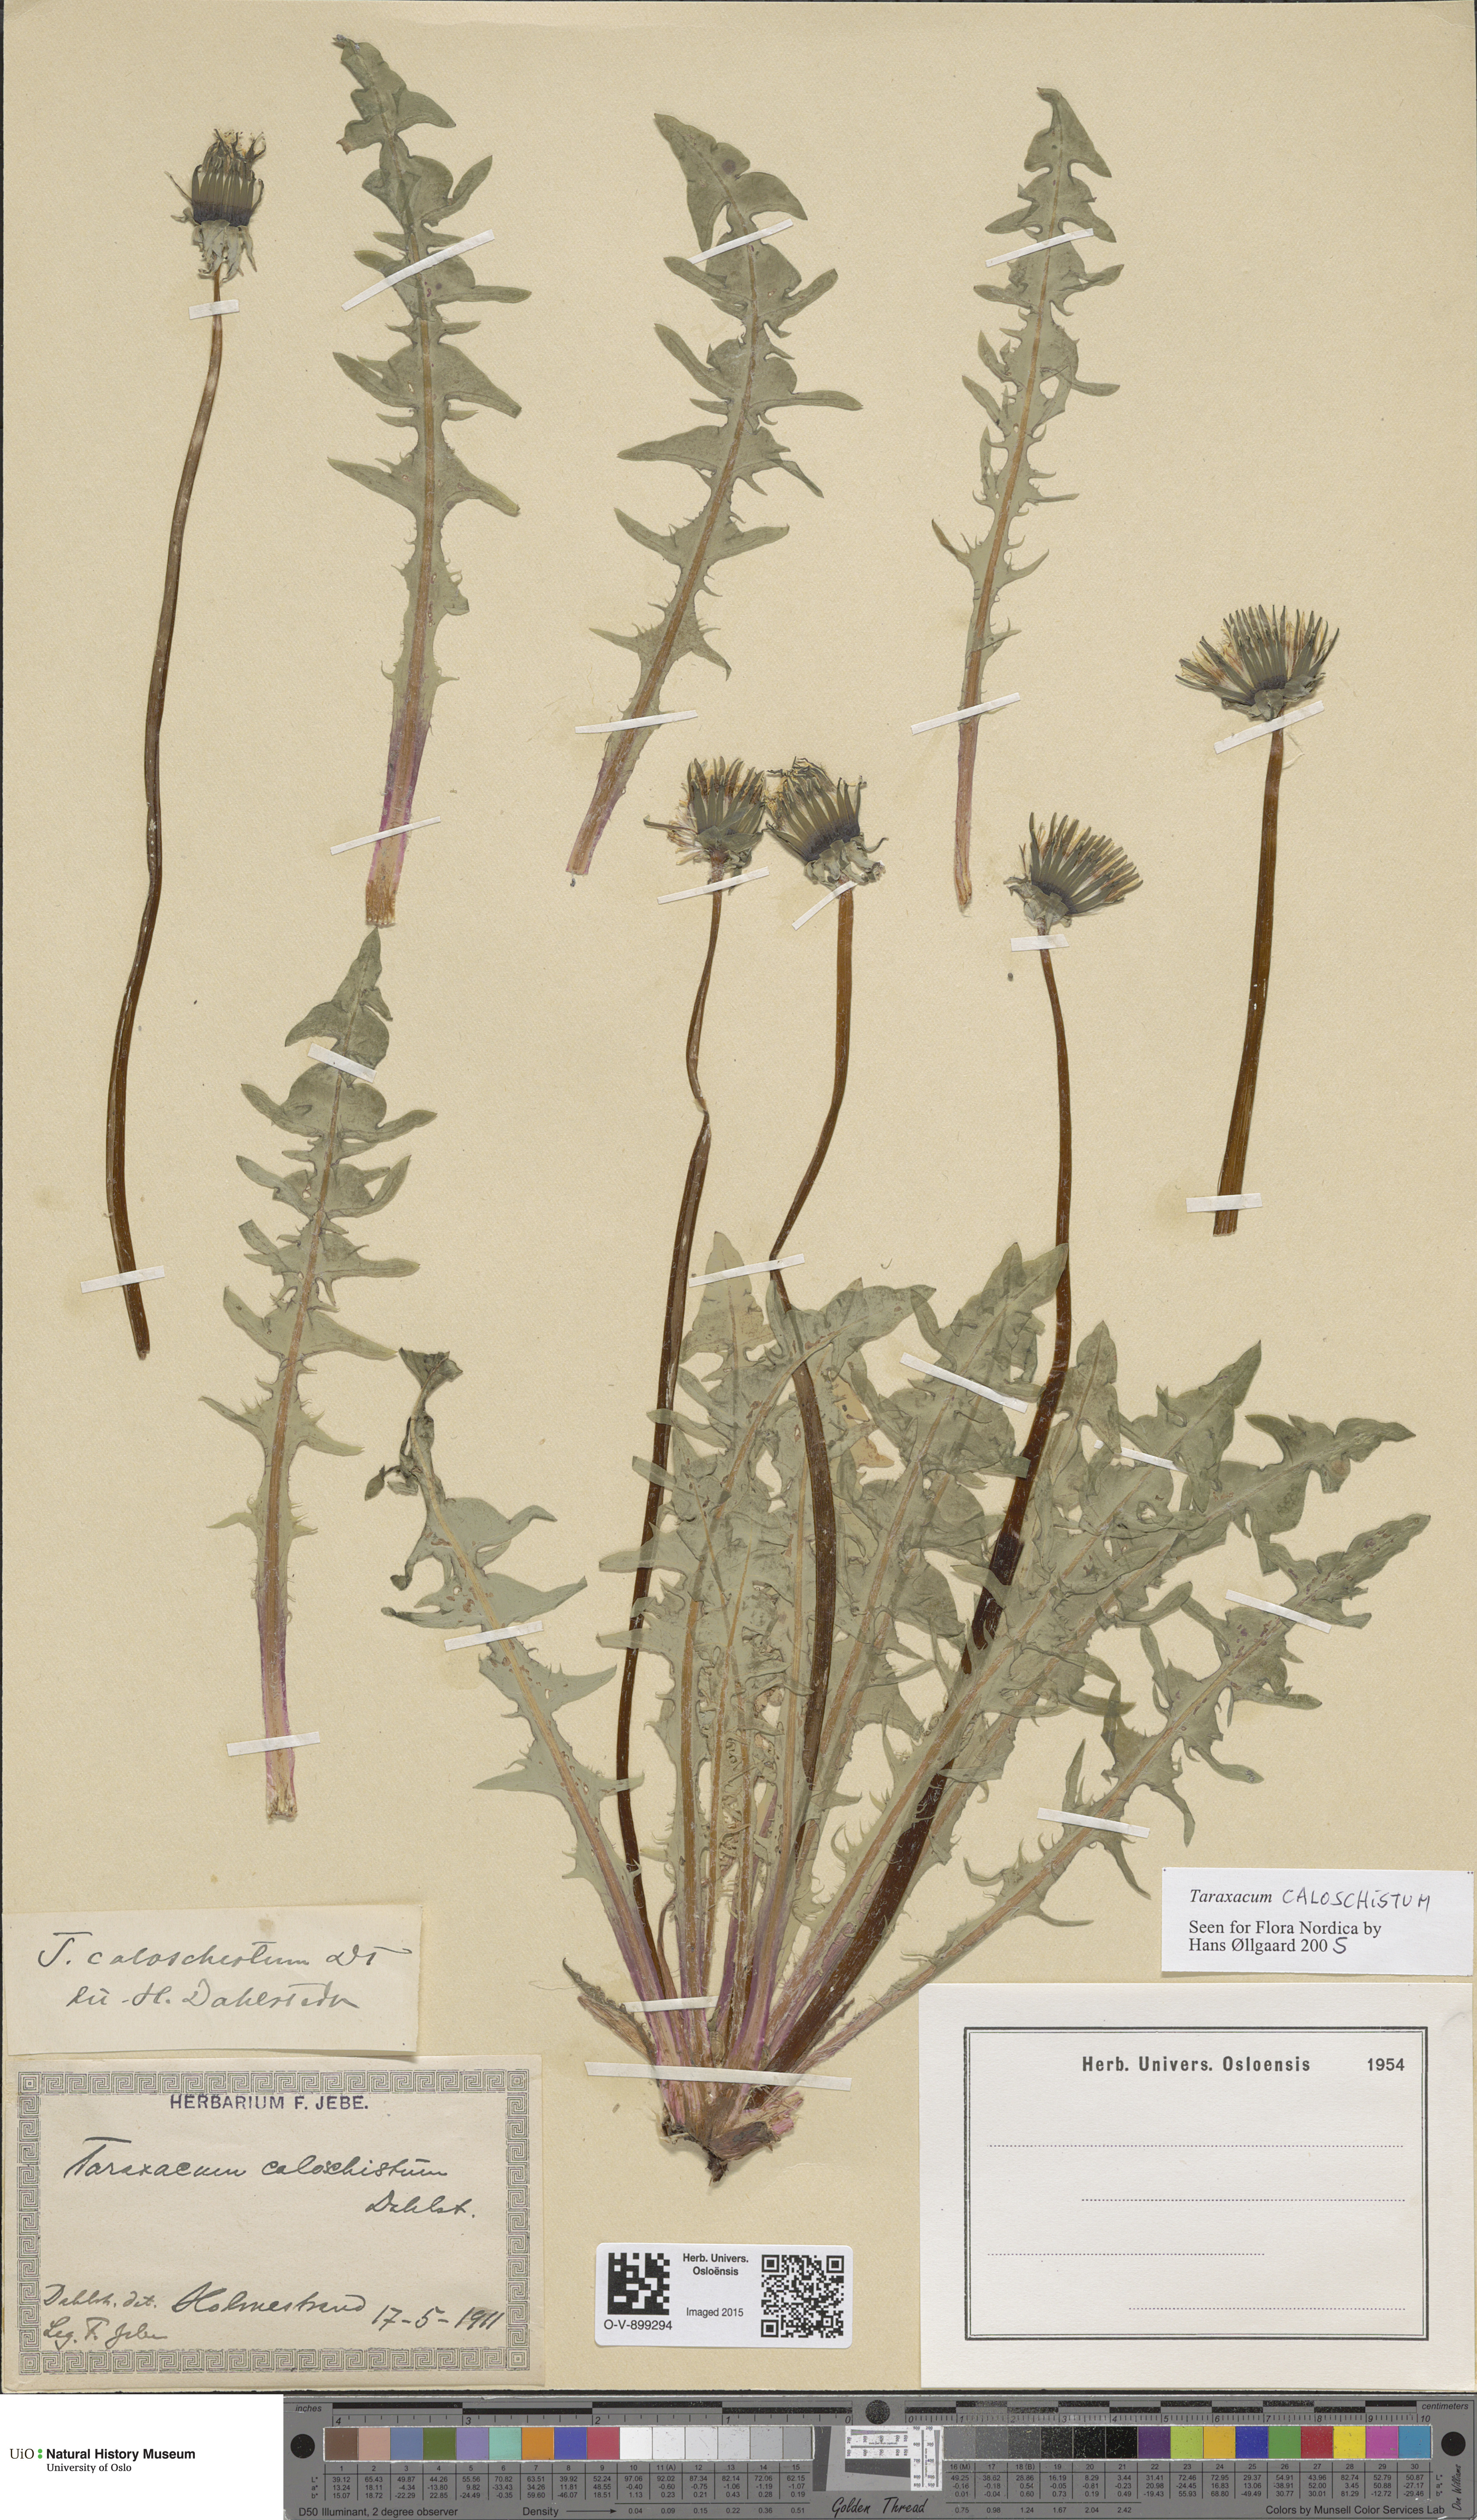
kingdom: Plantae
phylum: Tracheophyta
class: Magnoliopsida
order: Asterales
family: Asteraceae
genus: Taraxacum
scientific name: Taraxacum caloschistum
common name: Brilliant-stalked dandelion
